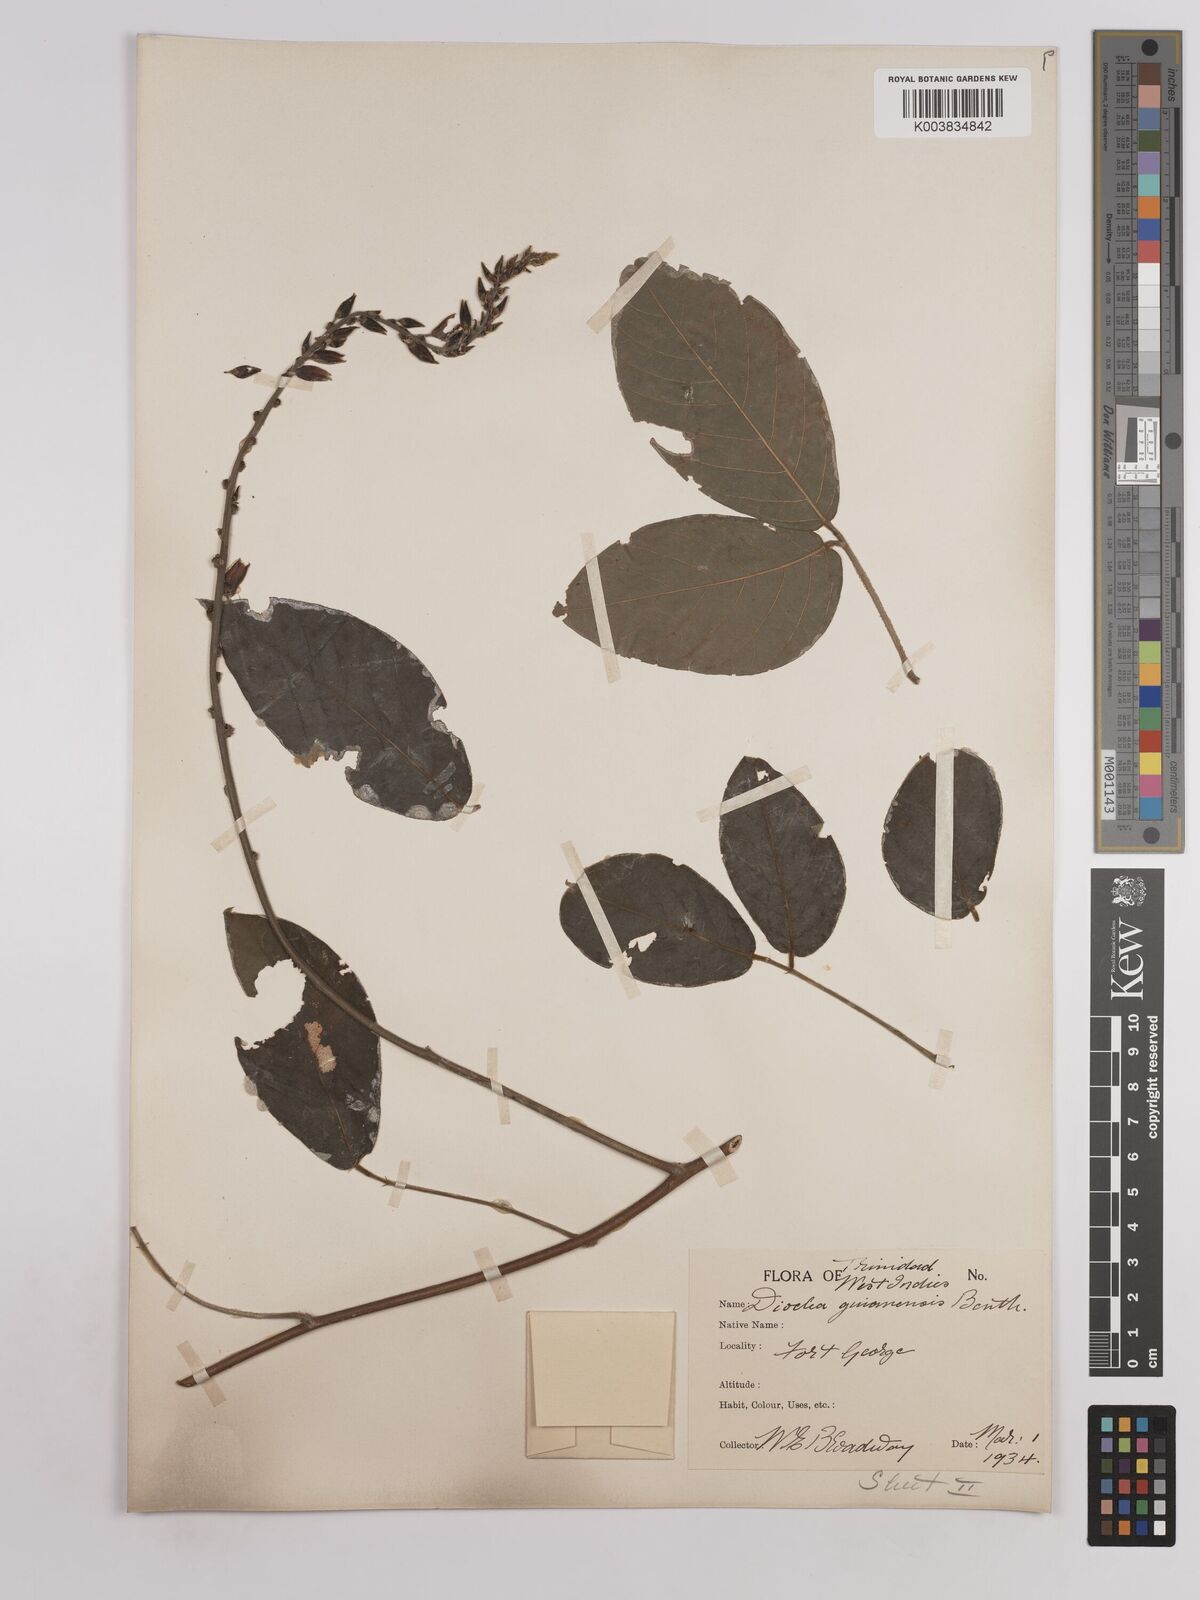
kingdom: Plantae
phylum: Tracheophyta
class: Magnoliopsida
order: Fabales
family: Fabaceae
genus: Dioclea
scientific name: Dioclea guianensis
